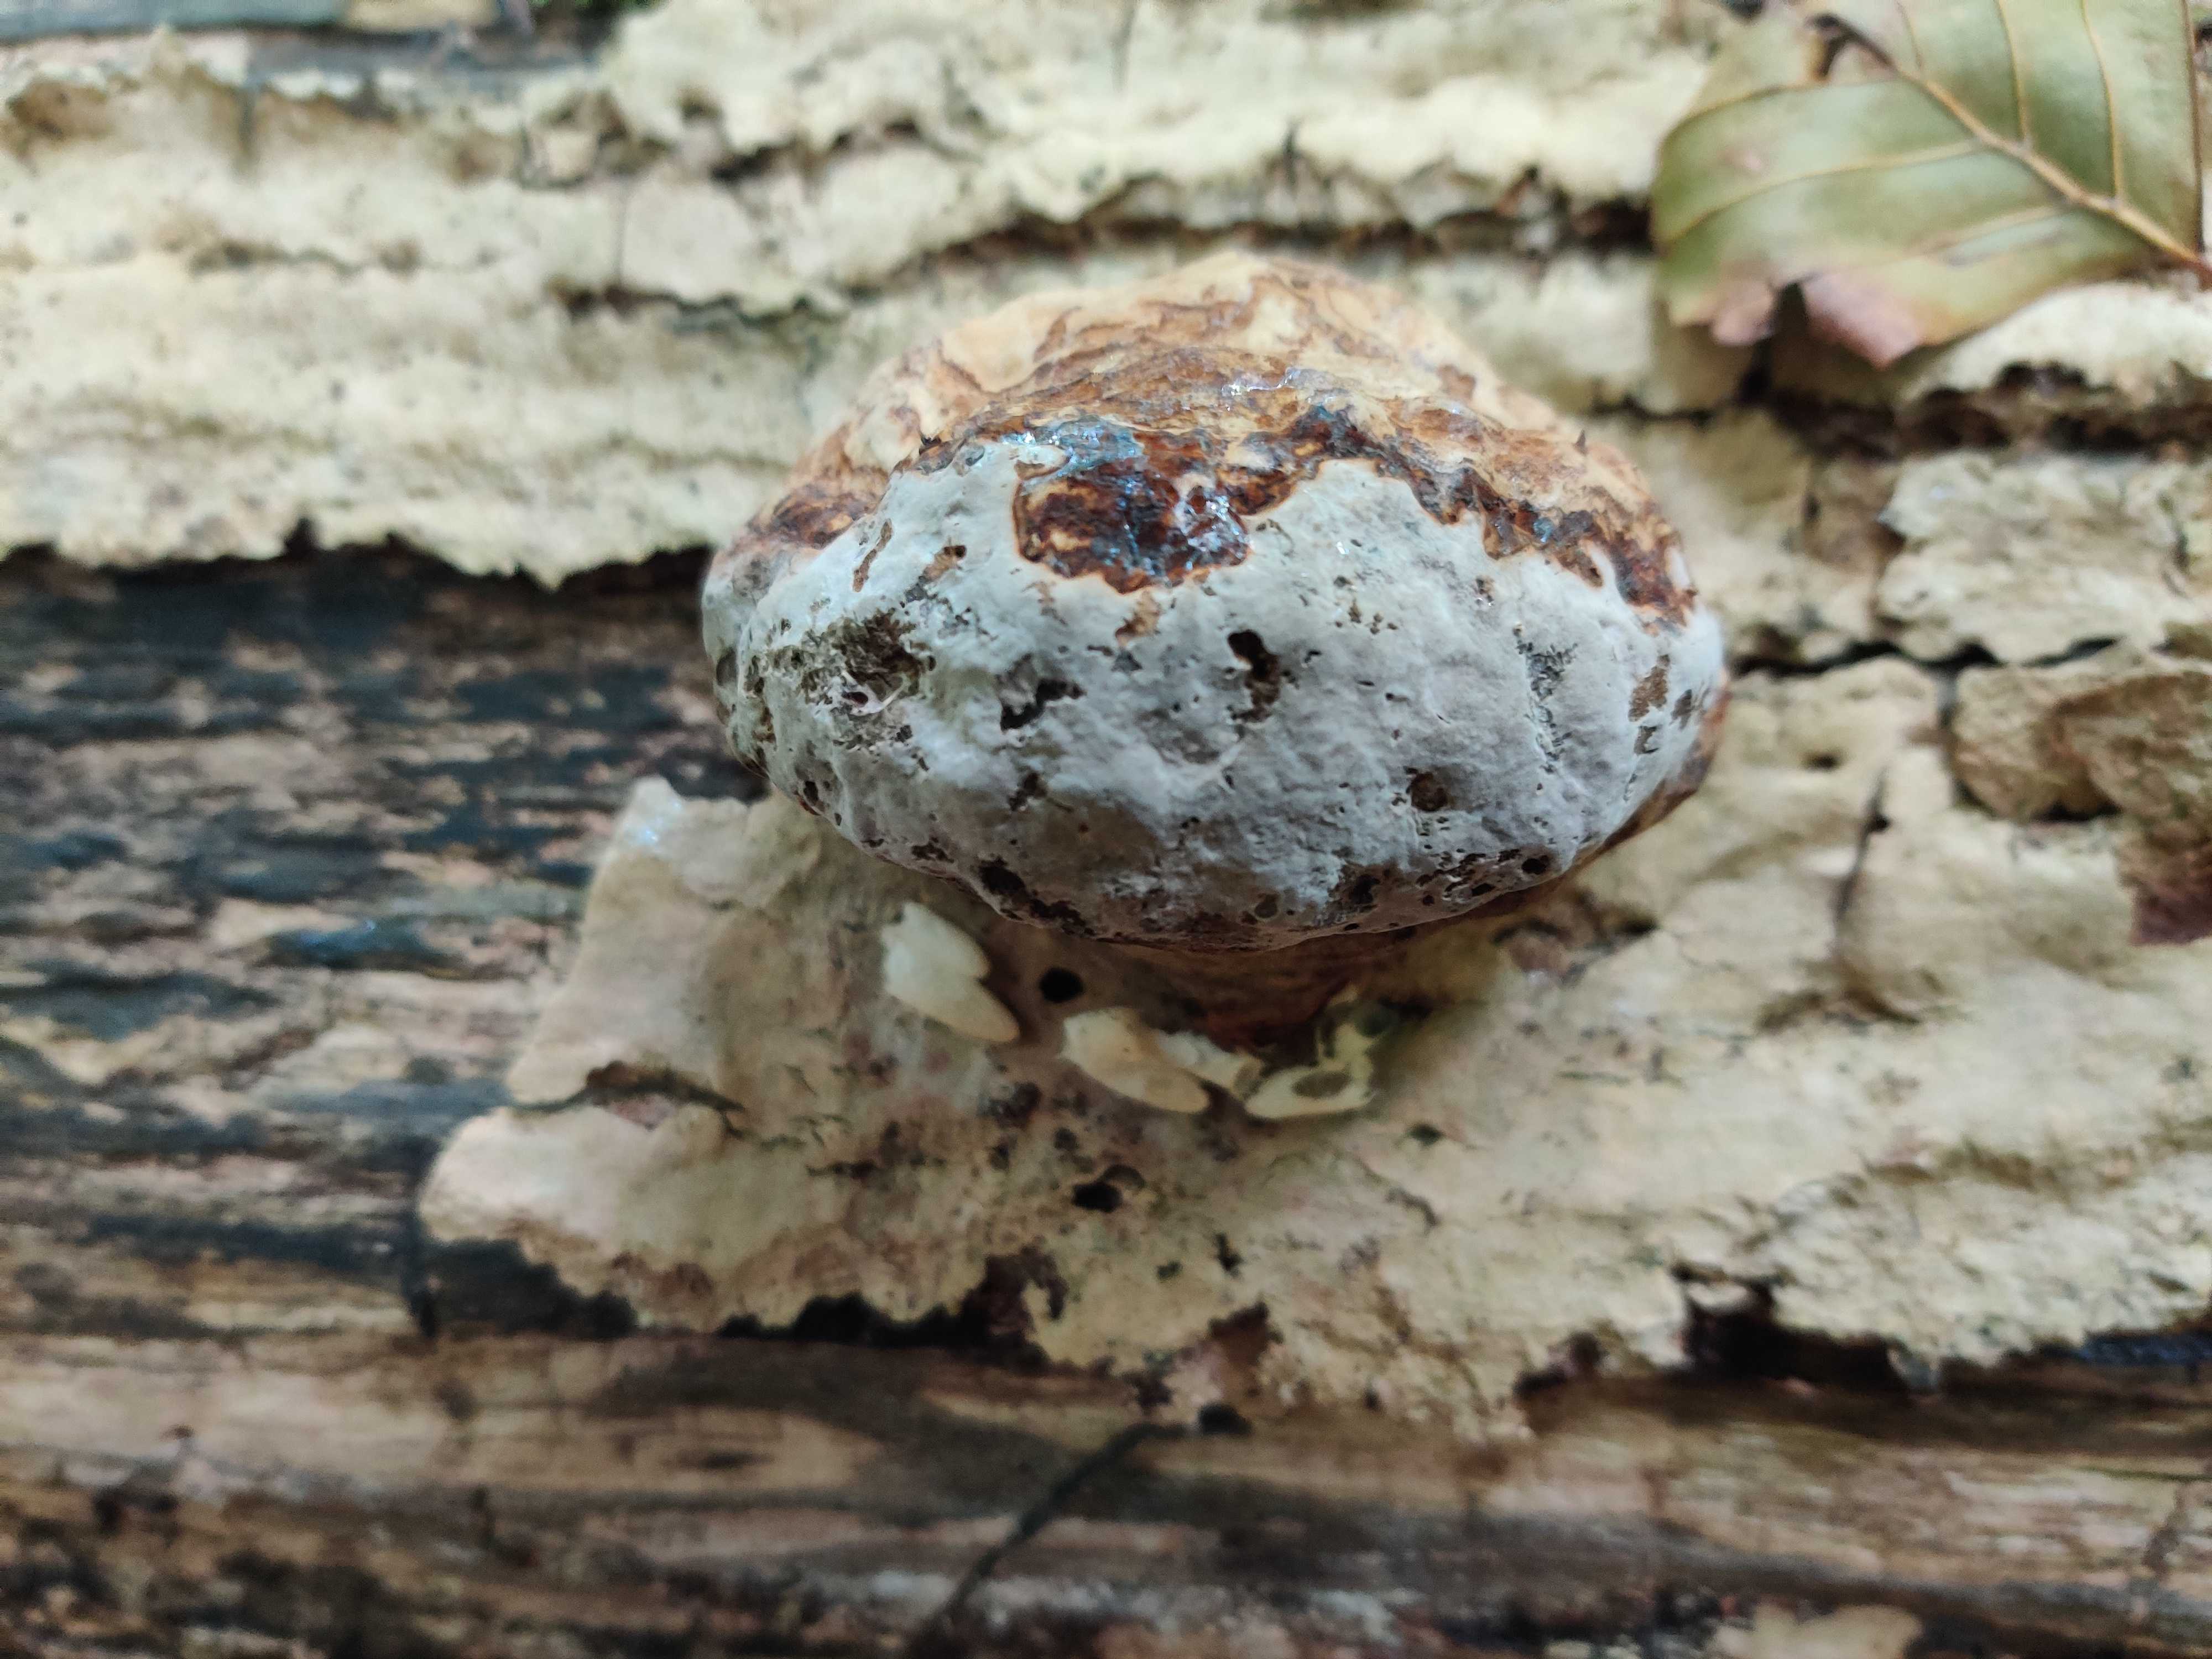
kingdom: Fungi
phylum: Basidiomycota
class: Agaricomycetes
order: Polyporales
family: Polyporaceae
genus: Fomes
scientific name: Fomes fomentarius
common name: tøndersvamp
